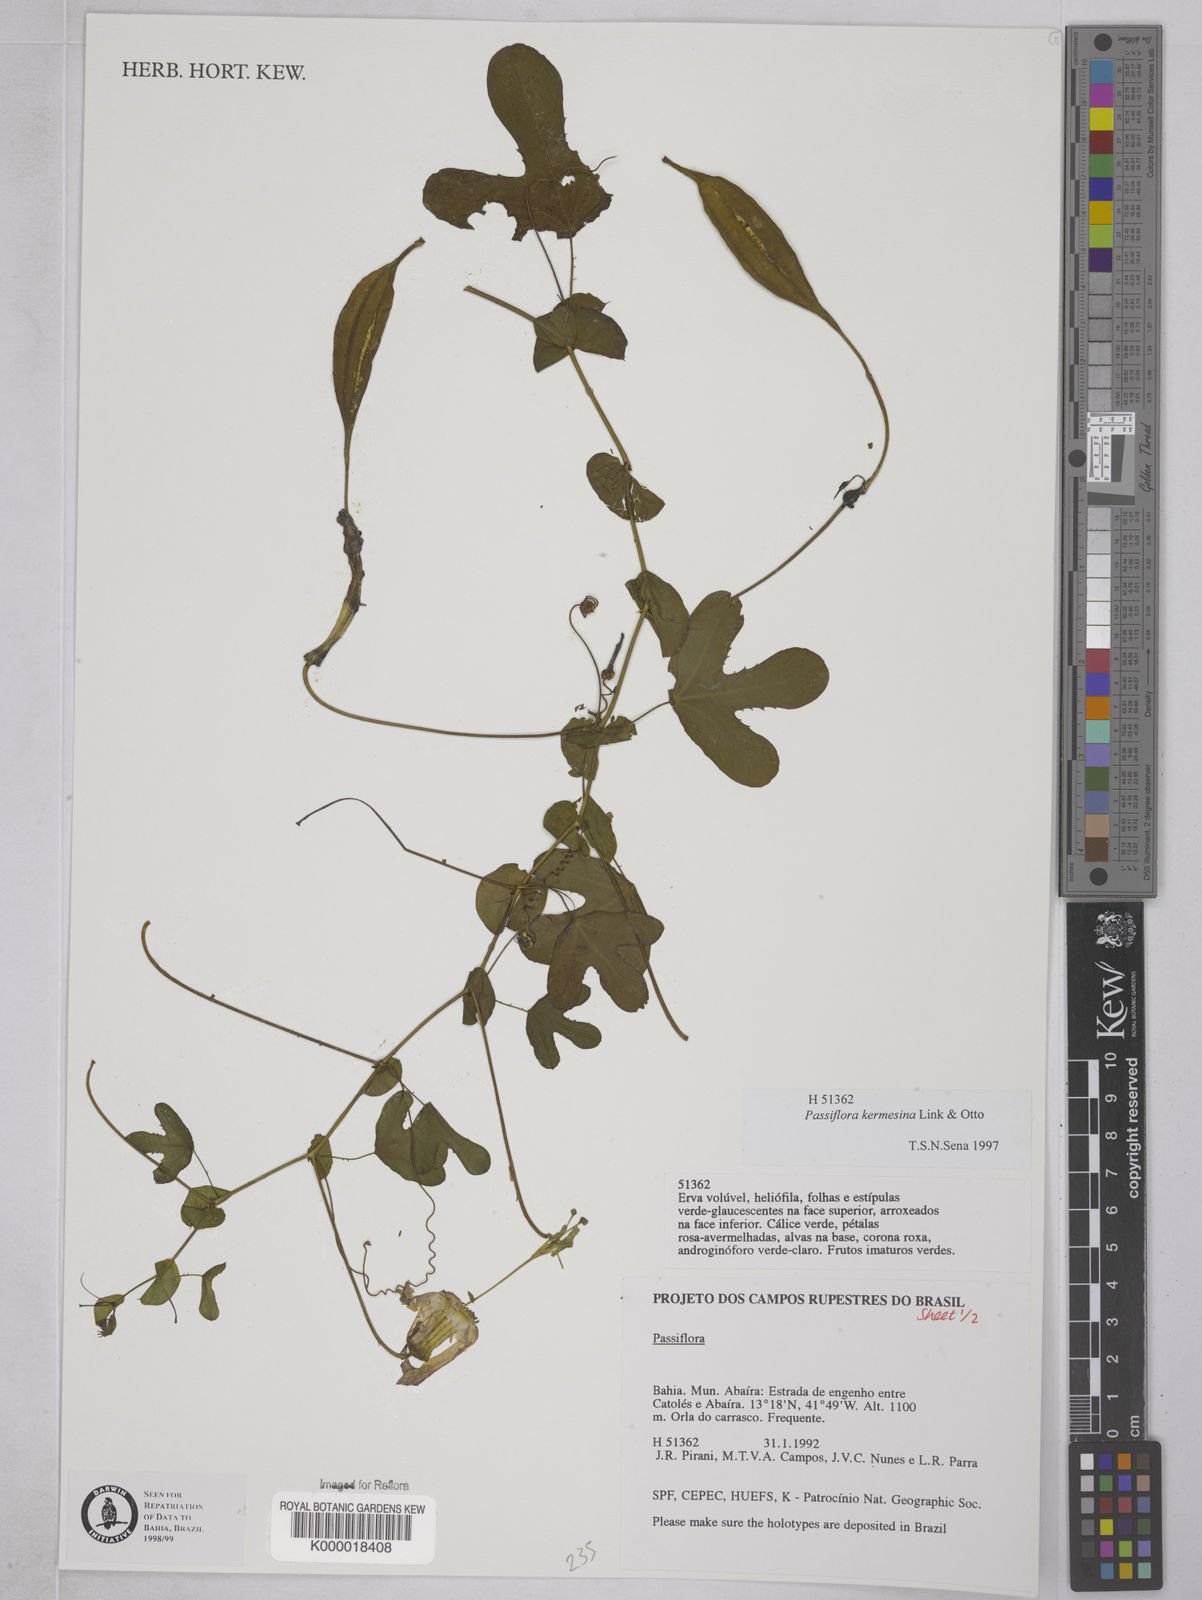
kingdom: Plantae
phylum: Tracheophyta
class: Magnoliopsida
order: Malpighiales
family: Passifloraceae
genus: Passiflora
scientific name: Passiflora kermesina
